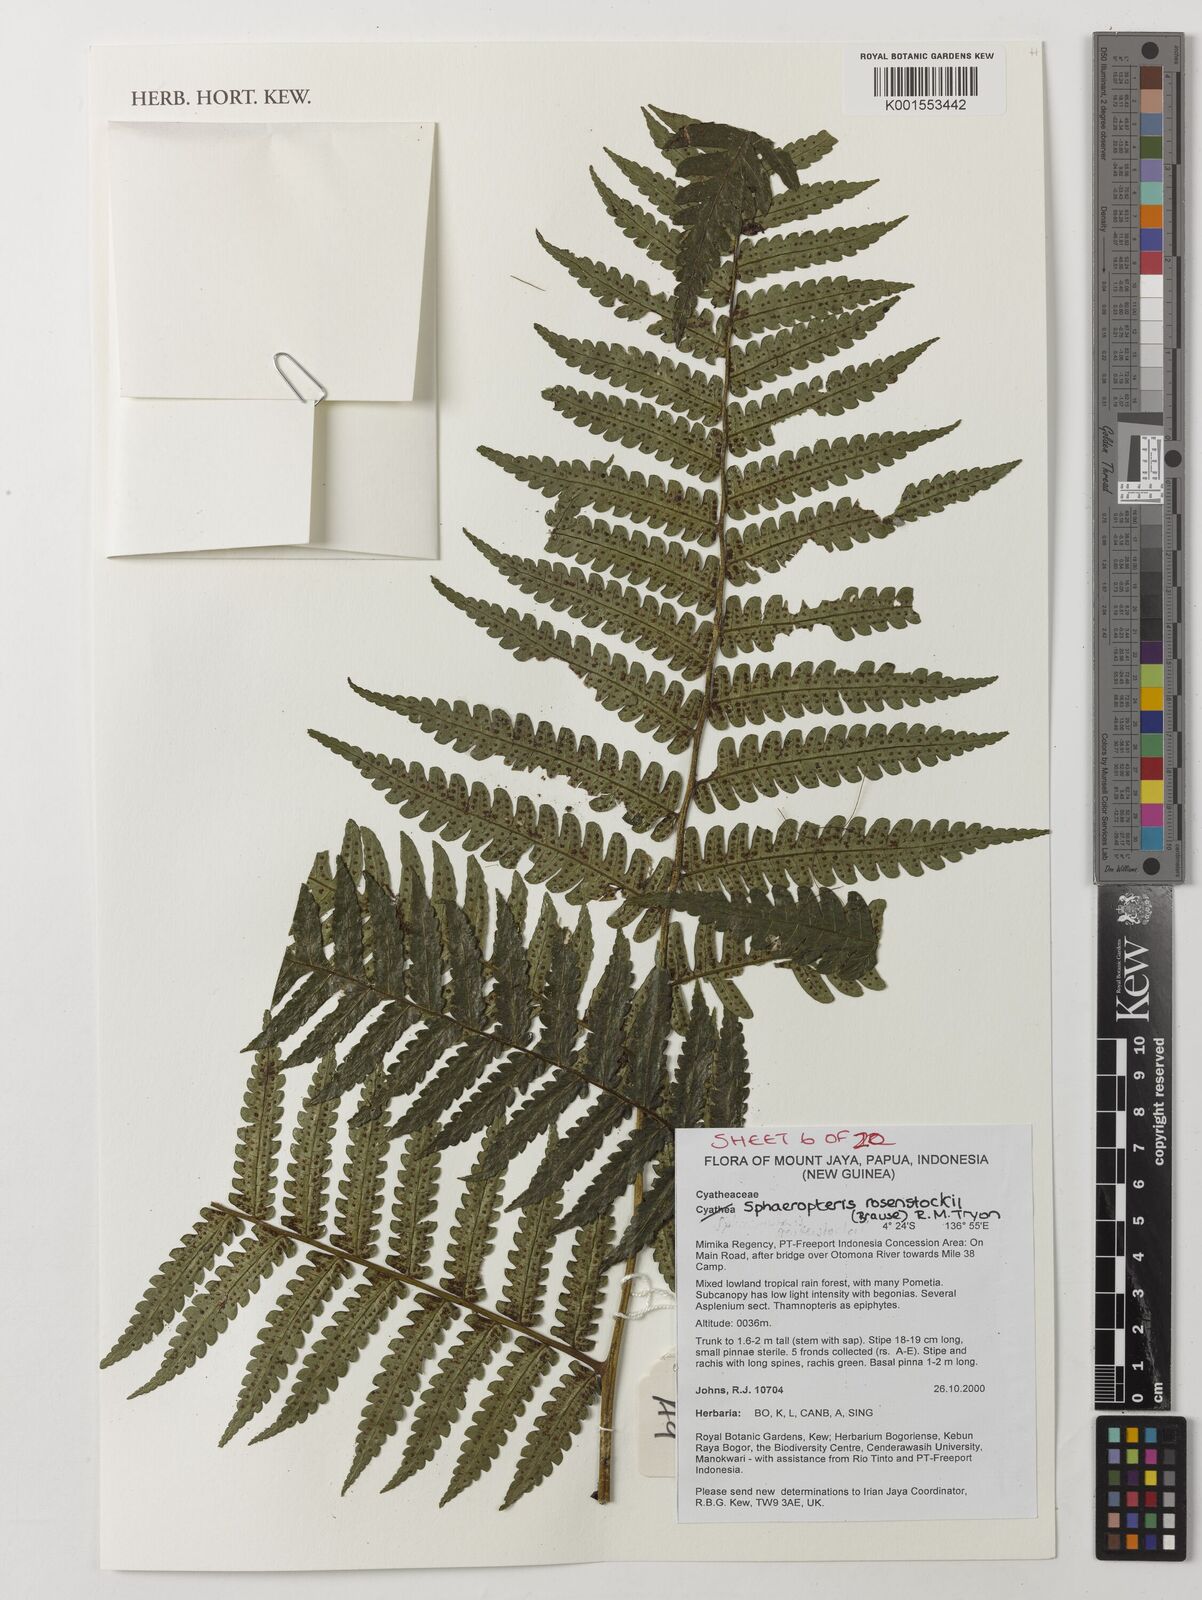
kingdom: Plantae
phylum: Tracheophyta
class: Polypodiopsida
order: Cyatheales
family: Cyatheaceae
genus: Sphaeropteris
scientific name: Sphaeropteris rosenstockii
